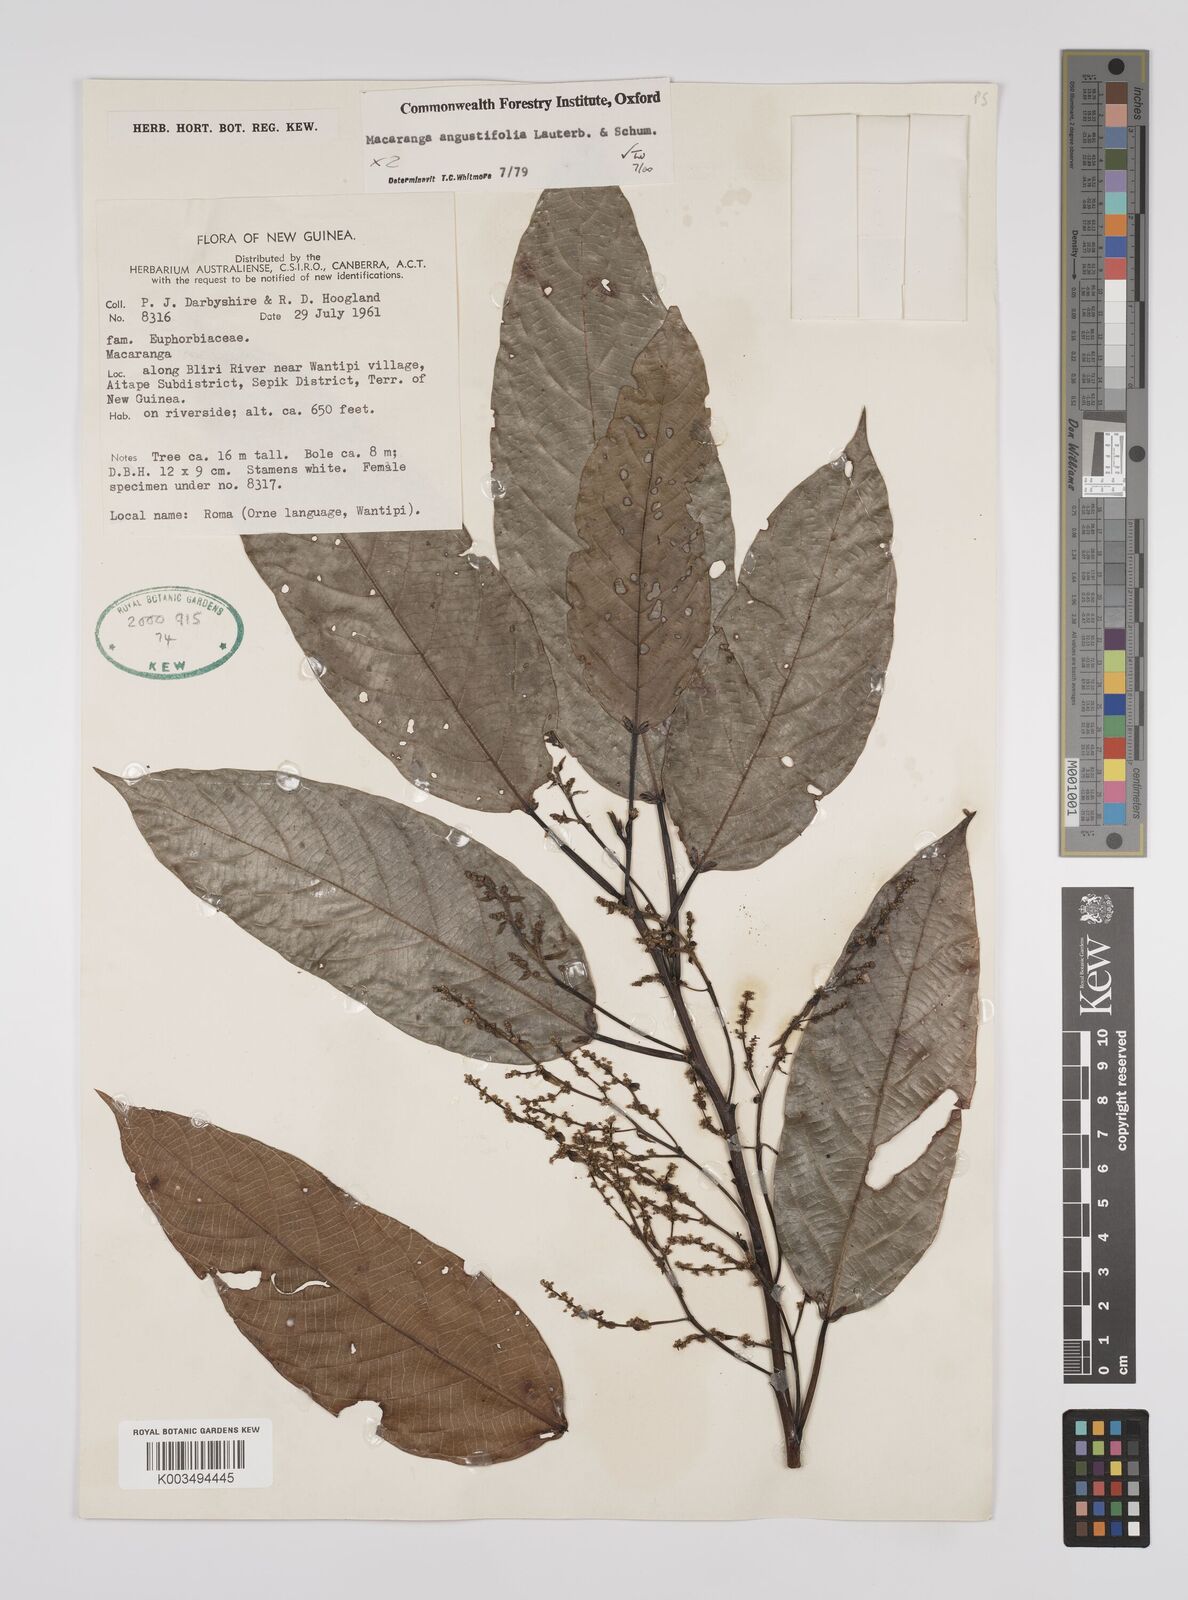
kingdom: Plantae
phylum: Tracheophyta
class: Magnoliopsida
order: Malpighiales
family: Euphorbiaceae
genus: Macaranga
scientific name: Macaranga angustifolia
